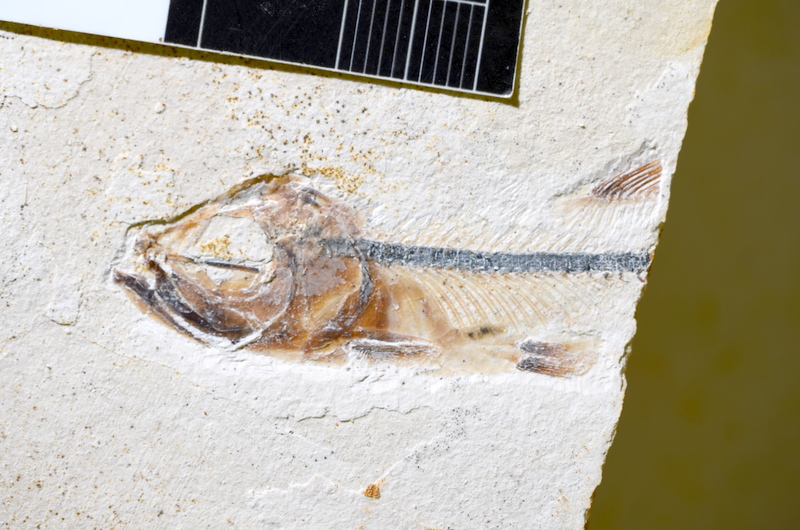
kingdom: Animalia
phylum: Chordata
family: Ascalaboidae
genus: Ebertichthys
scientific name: Ebertichthys ettlingensis
